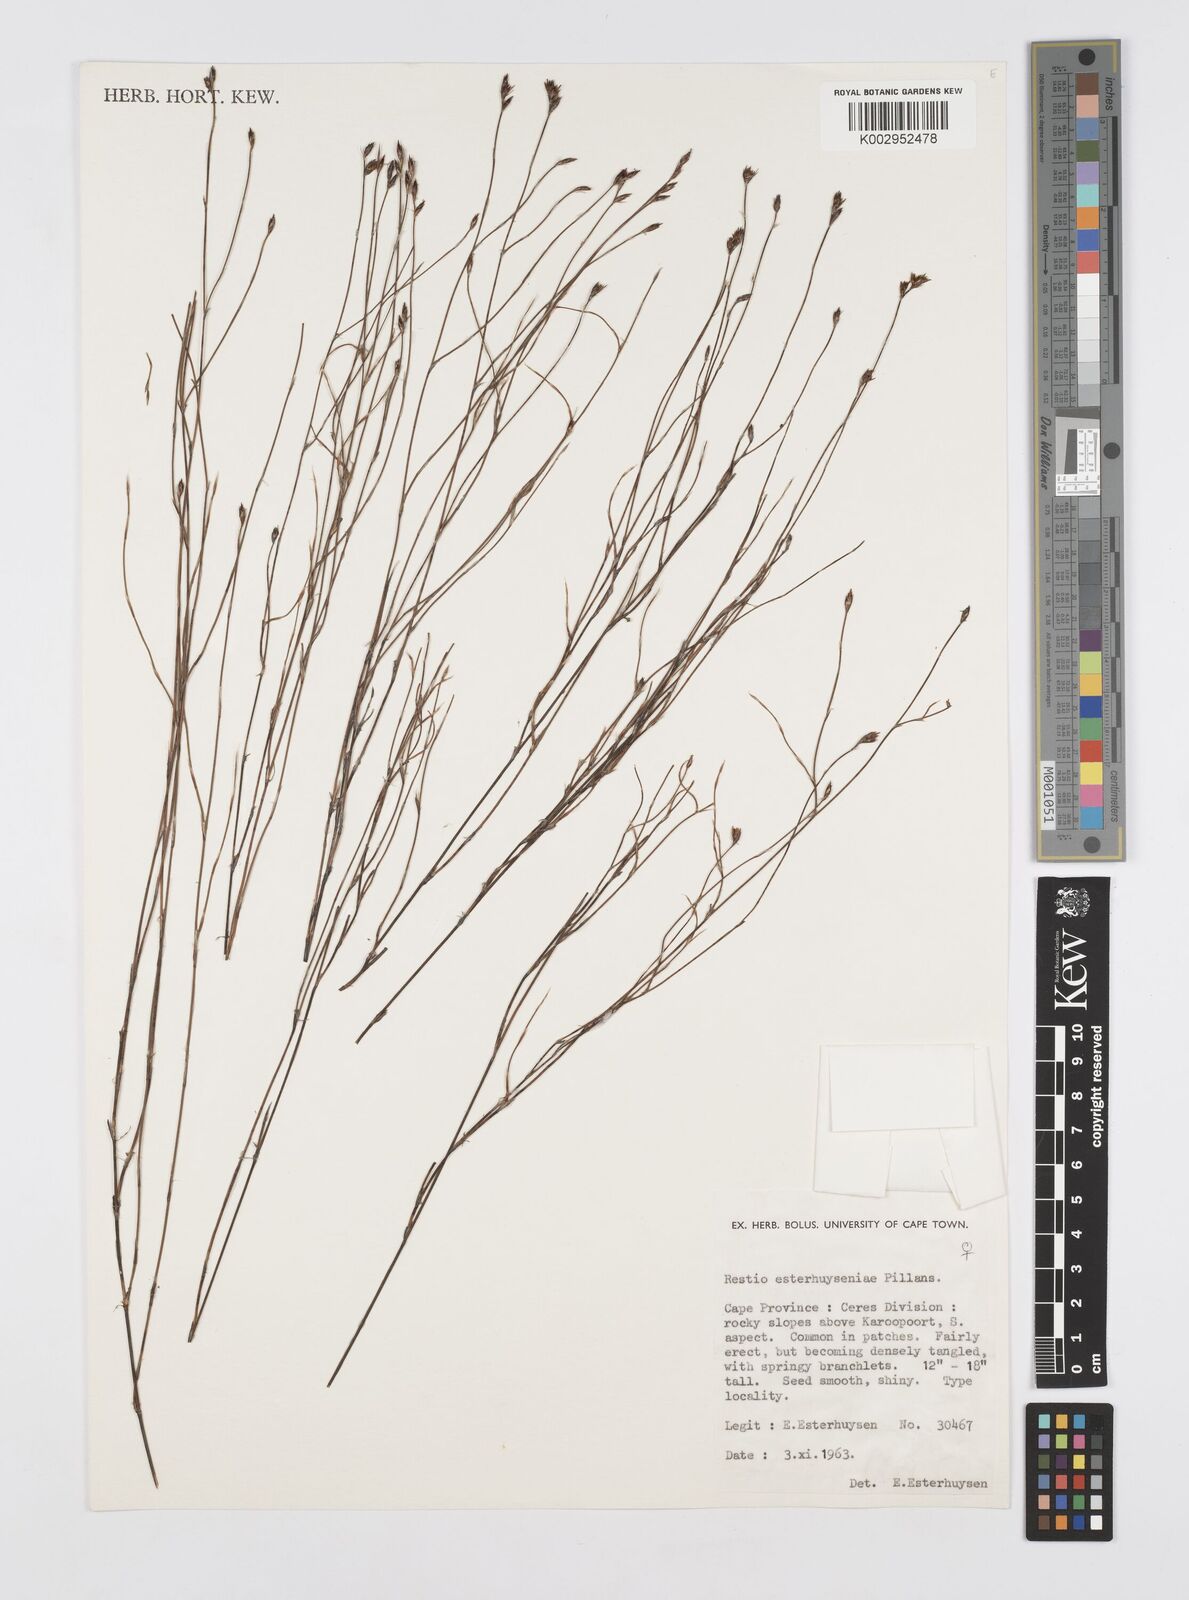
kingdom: Plantae
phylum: Tracheophyta
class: Liliopsida
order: Poales
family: Restionaceae
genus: Restio
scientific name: Restio esterhuyseniae
